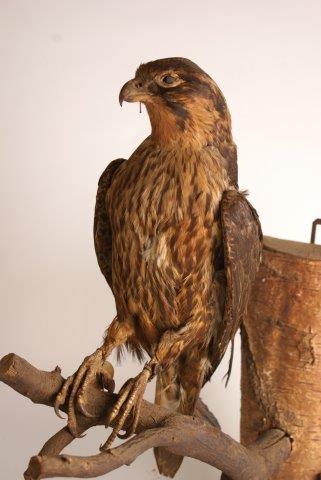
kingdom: Animalia
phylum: Chordata
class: Aves
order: Accipitriformes
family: Accipitridae
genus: Accipiter
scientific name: Accipiter gentilis
